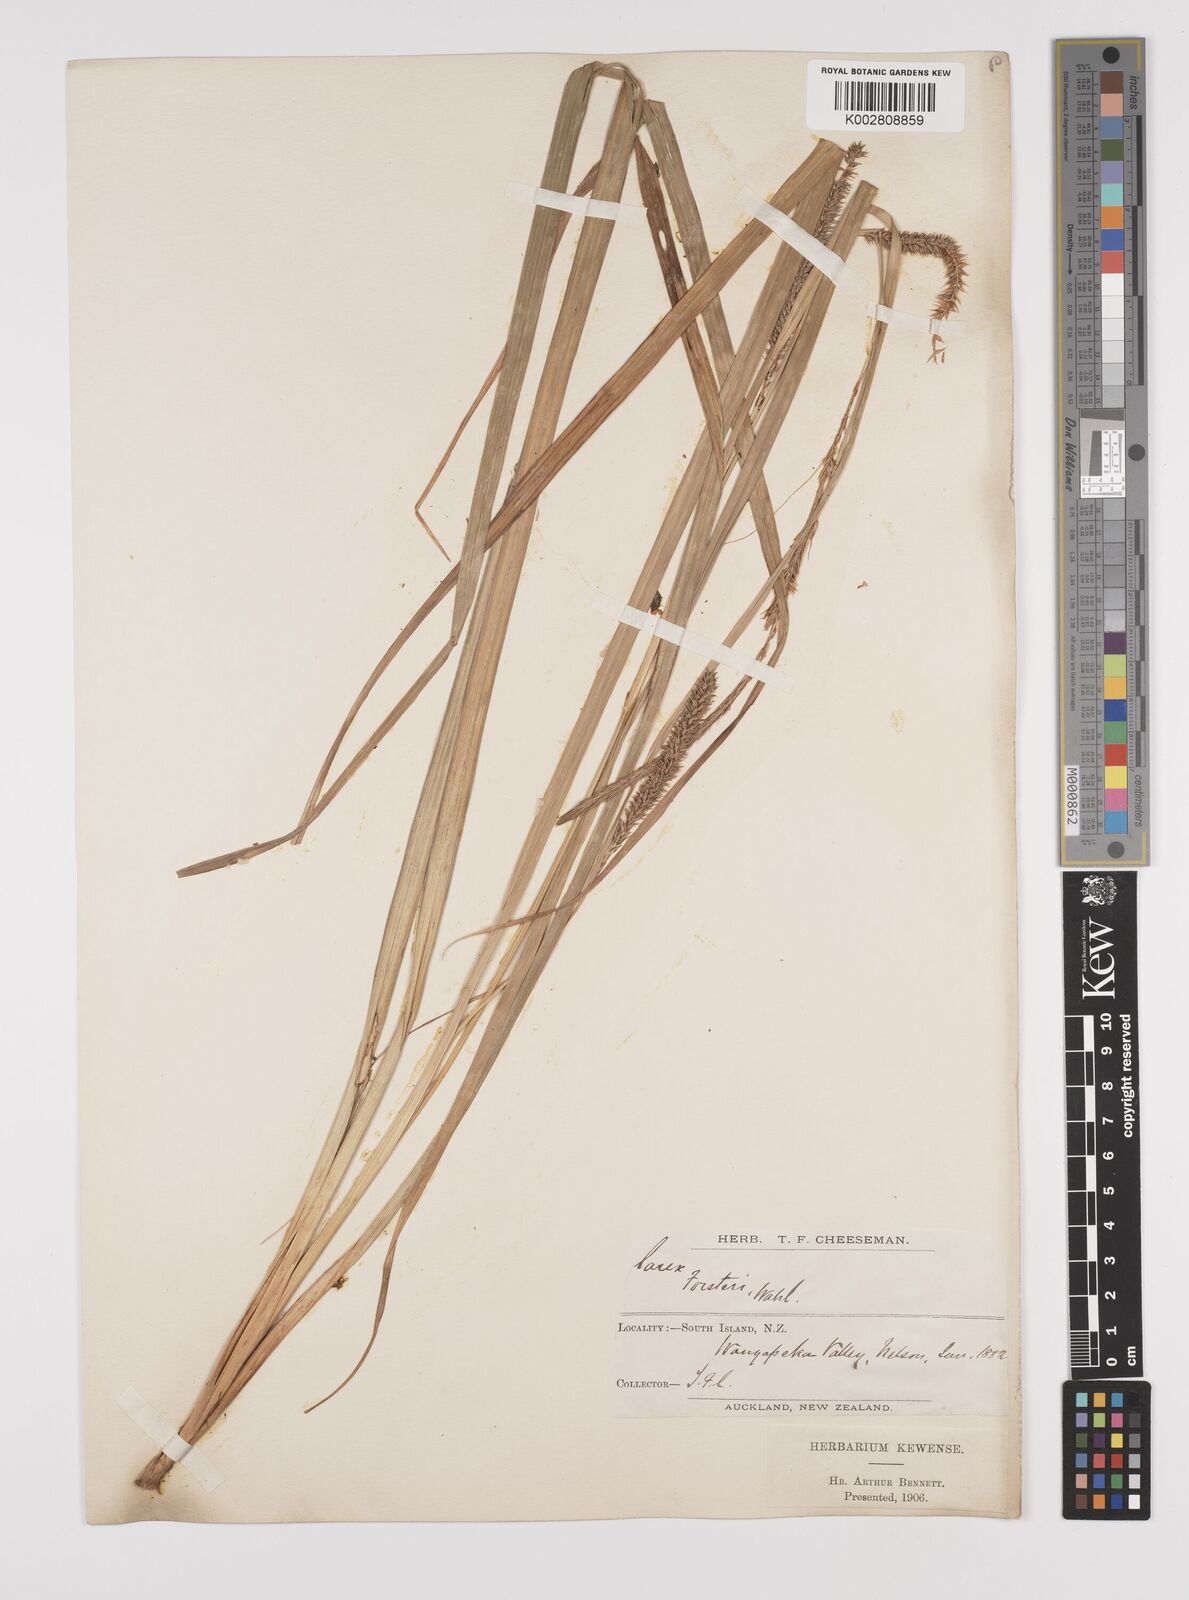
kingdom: Plantae
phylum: Tracheophyta
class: Liliopsida
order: Poales
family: Cyperaceae
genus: Carex
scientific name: Carex forsteri
